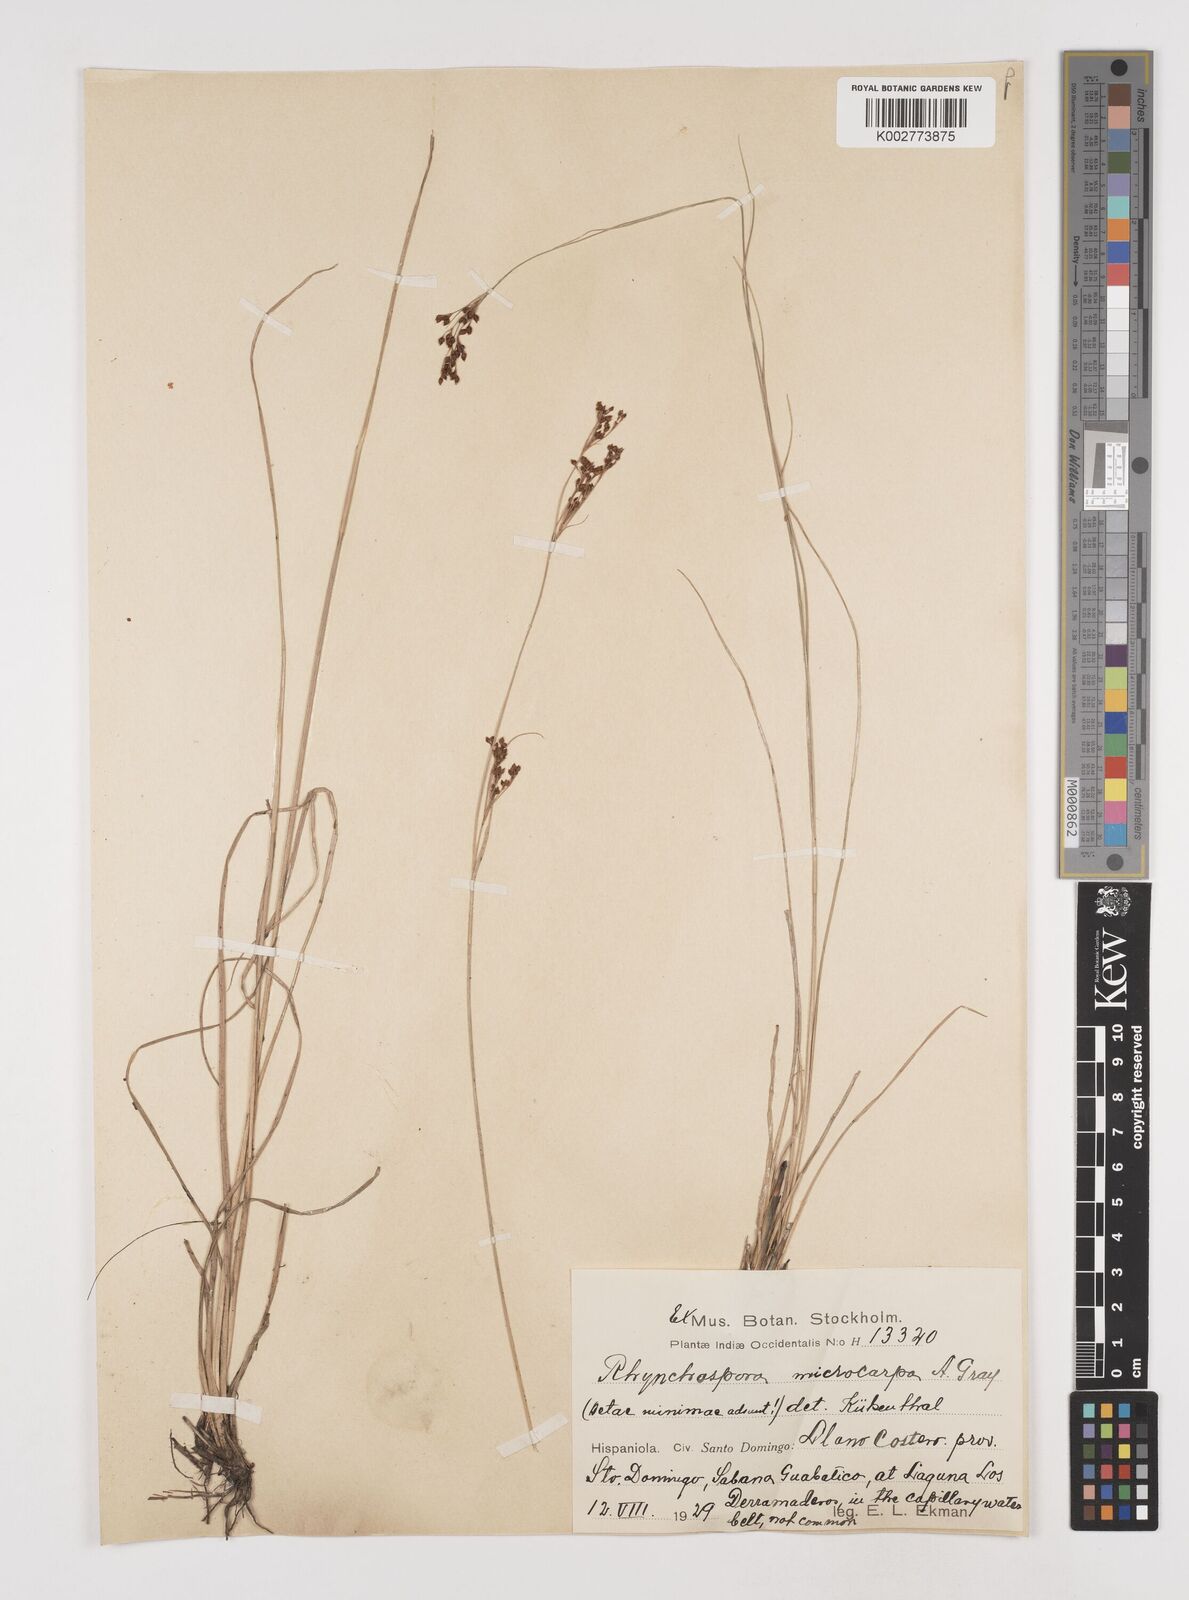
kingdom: Plantae
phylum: Tracheophyta
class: Liliopsida
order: Poales
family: Cyperaceae
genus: Rhynchospora
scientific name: Rhynchospora microcarpa
